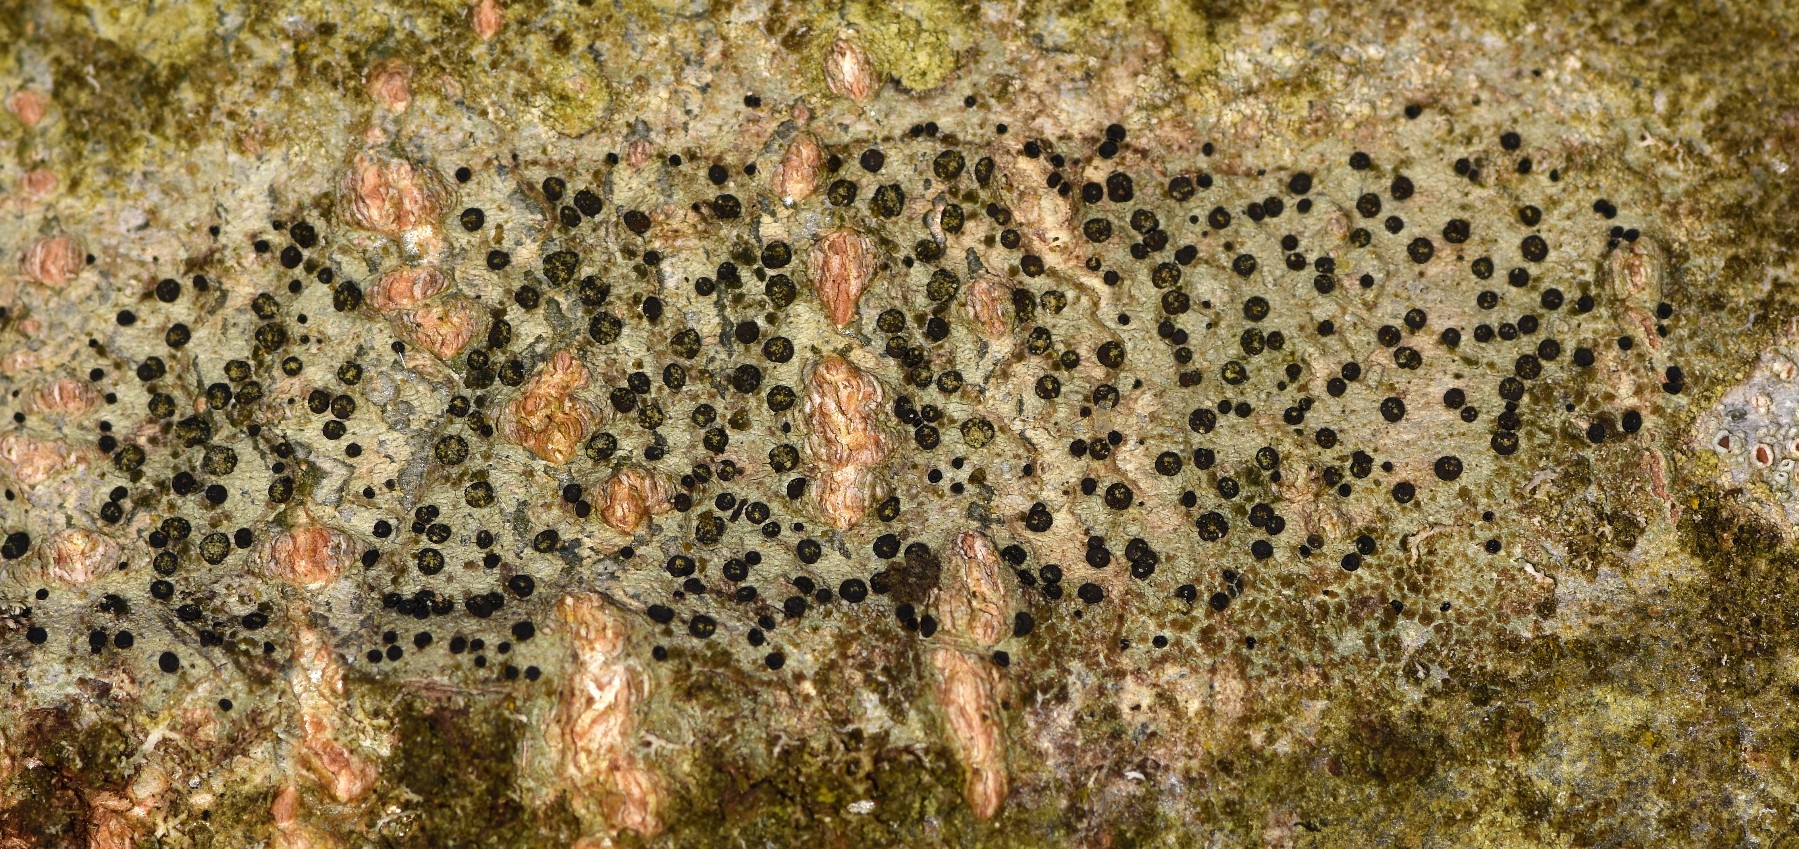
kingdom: Fungi
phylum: Ascomycota
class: Lecanoromycetes
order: Lecanorales
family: Lecanoraceae
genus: Lecidella
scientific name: Lecidella elaeochroma
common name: grågrøn skivelav
